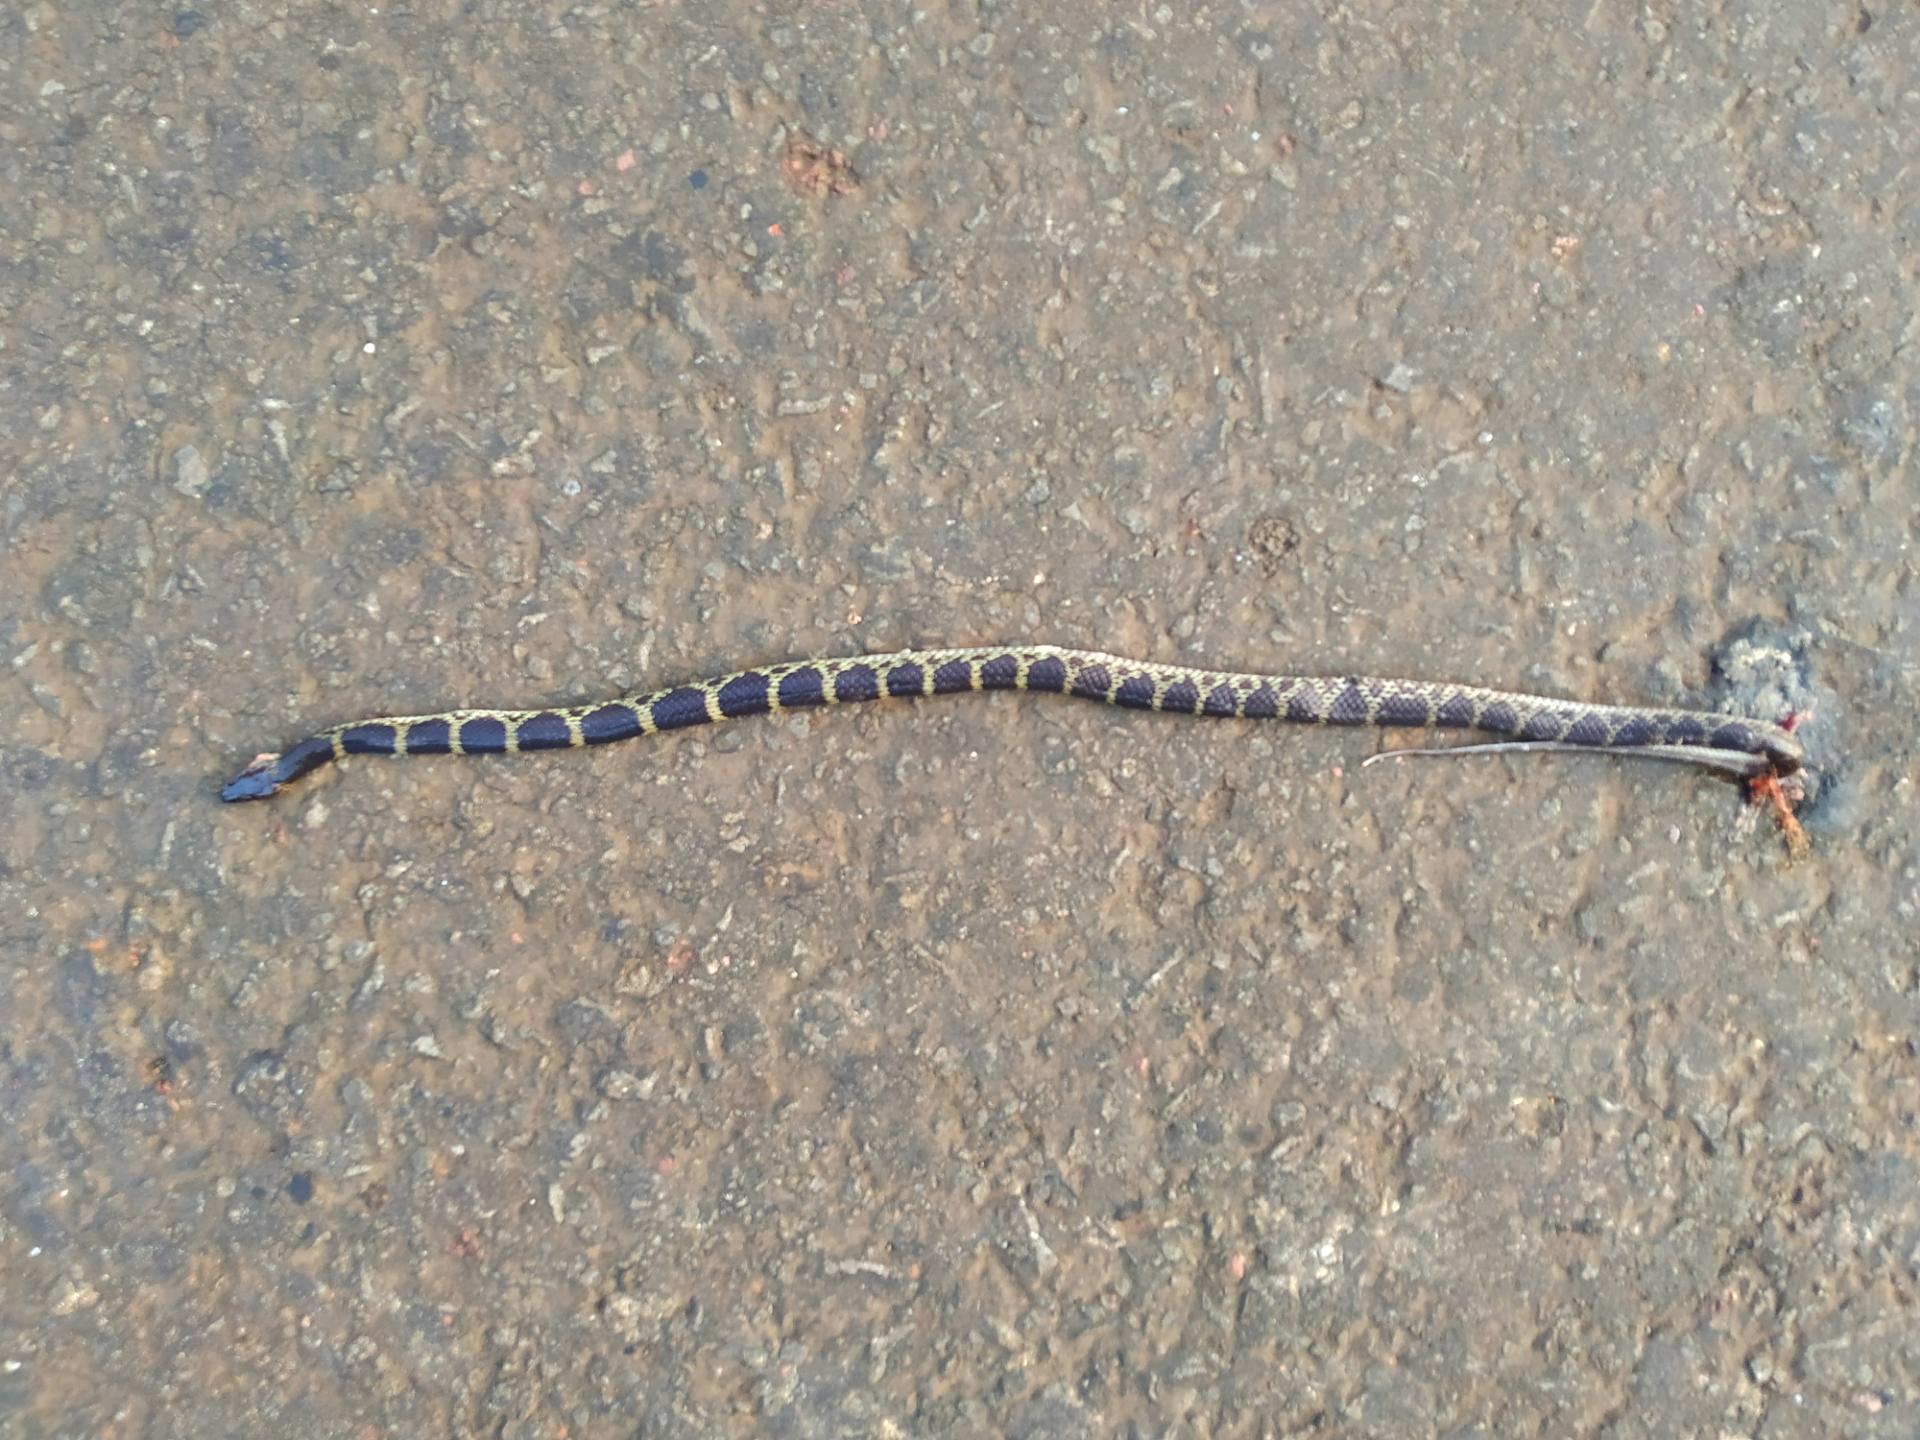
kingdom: Animalia
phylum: Chordata
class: Squamata
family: Colubridae
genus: Lycodon
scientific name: Lycodon
